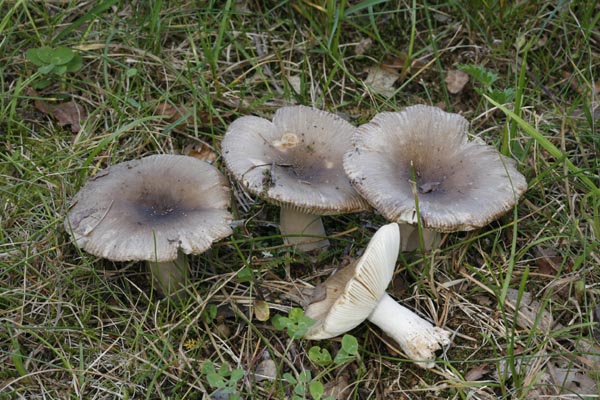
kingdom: Fungi
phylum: Basidiomycota
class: Agaricomycetes
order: Russulales
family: Russulaceae
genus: Russula
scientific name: Russula amoenolens
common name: skarp kam-skørhat
